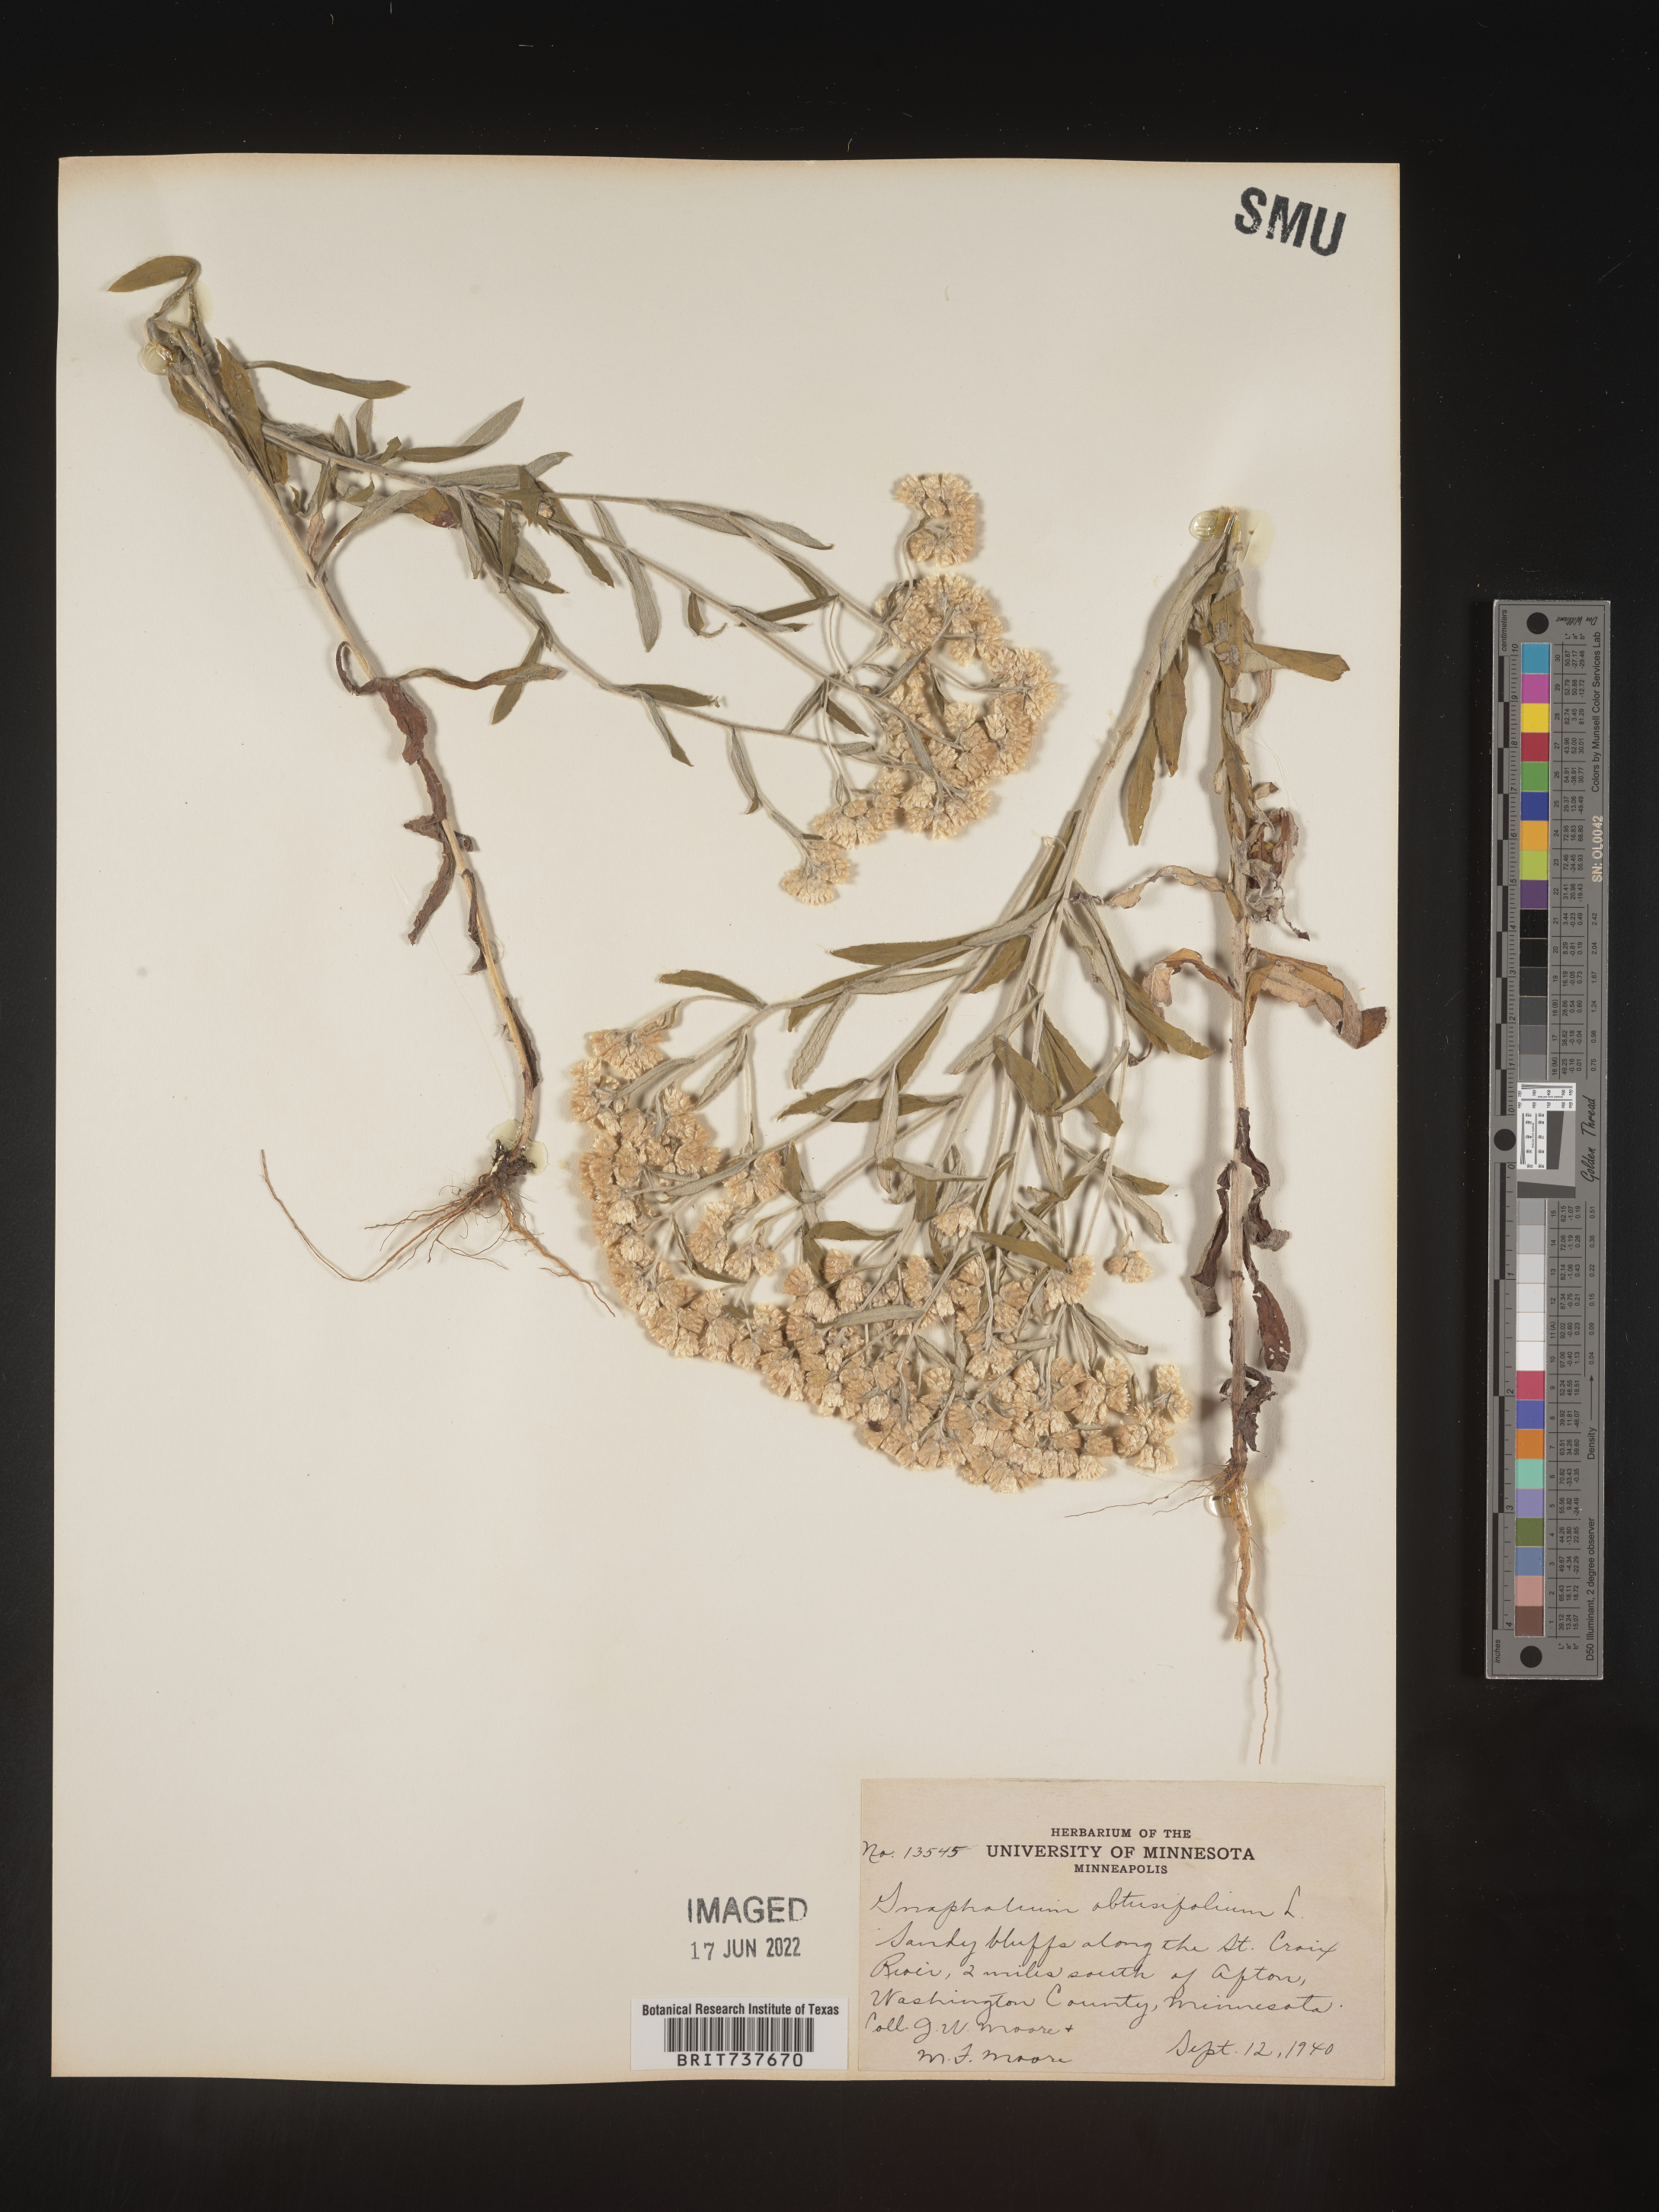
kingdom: Plantae
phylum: Tracheophyta
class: Magnoliopsida
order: Asterales
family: Asteraceae
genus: Pseudognaphalium
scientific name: Pseudognaphalium obtusifolium
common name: Eastern rabbit-tobacco
